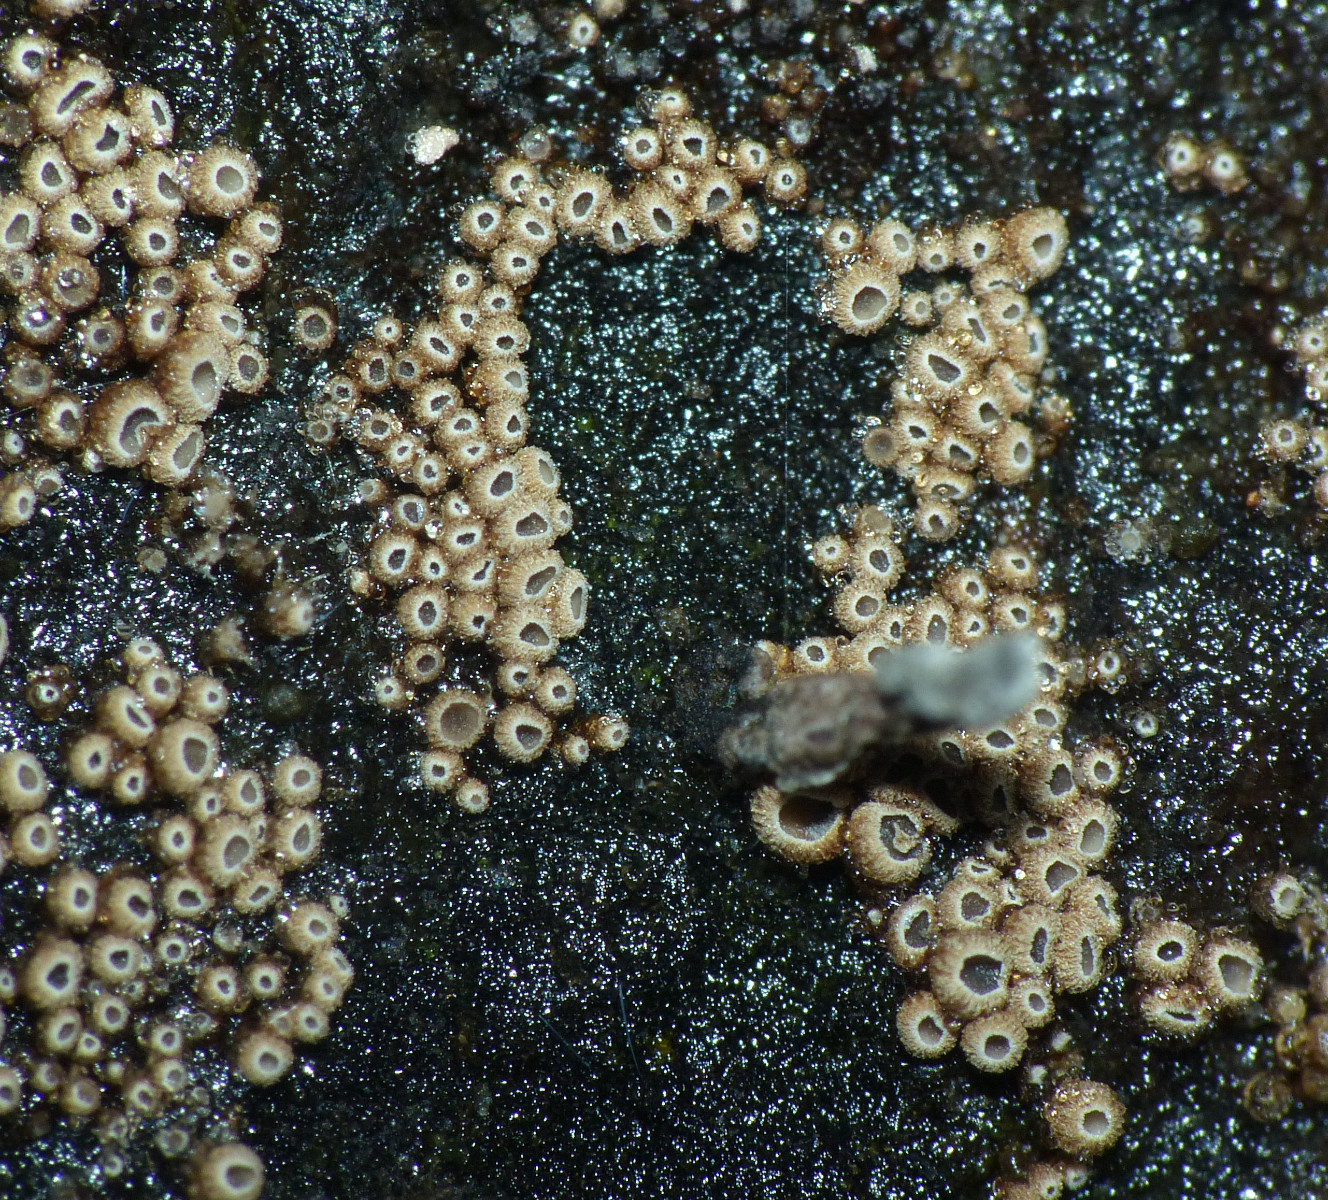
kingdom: Fungi
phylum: Basidiomycota
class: Agaricomycetes
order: Agaricales
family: Niaceae
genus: Merismodes
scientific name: Merismodes
